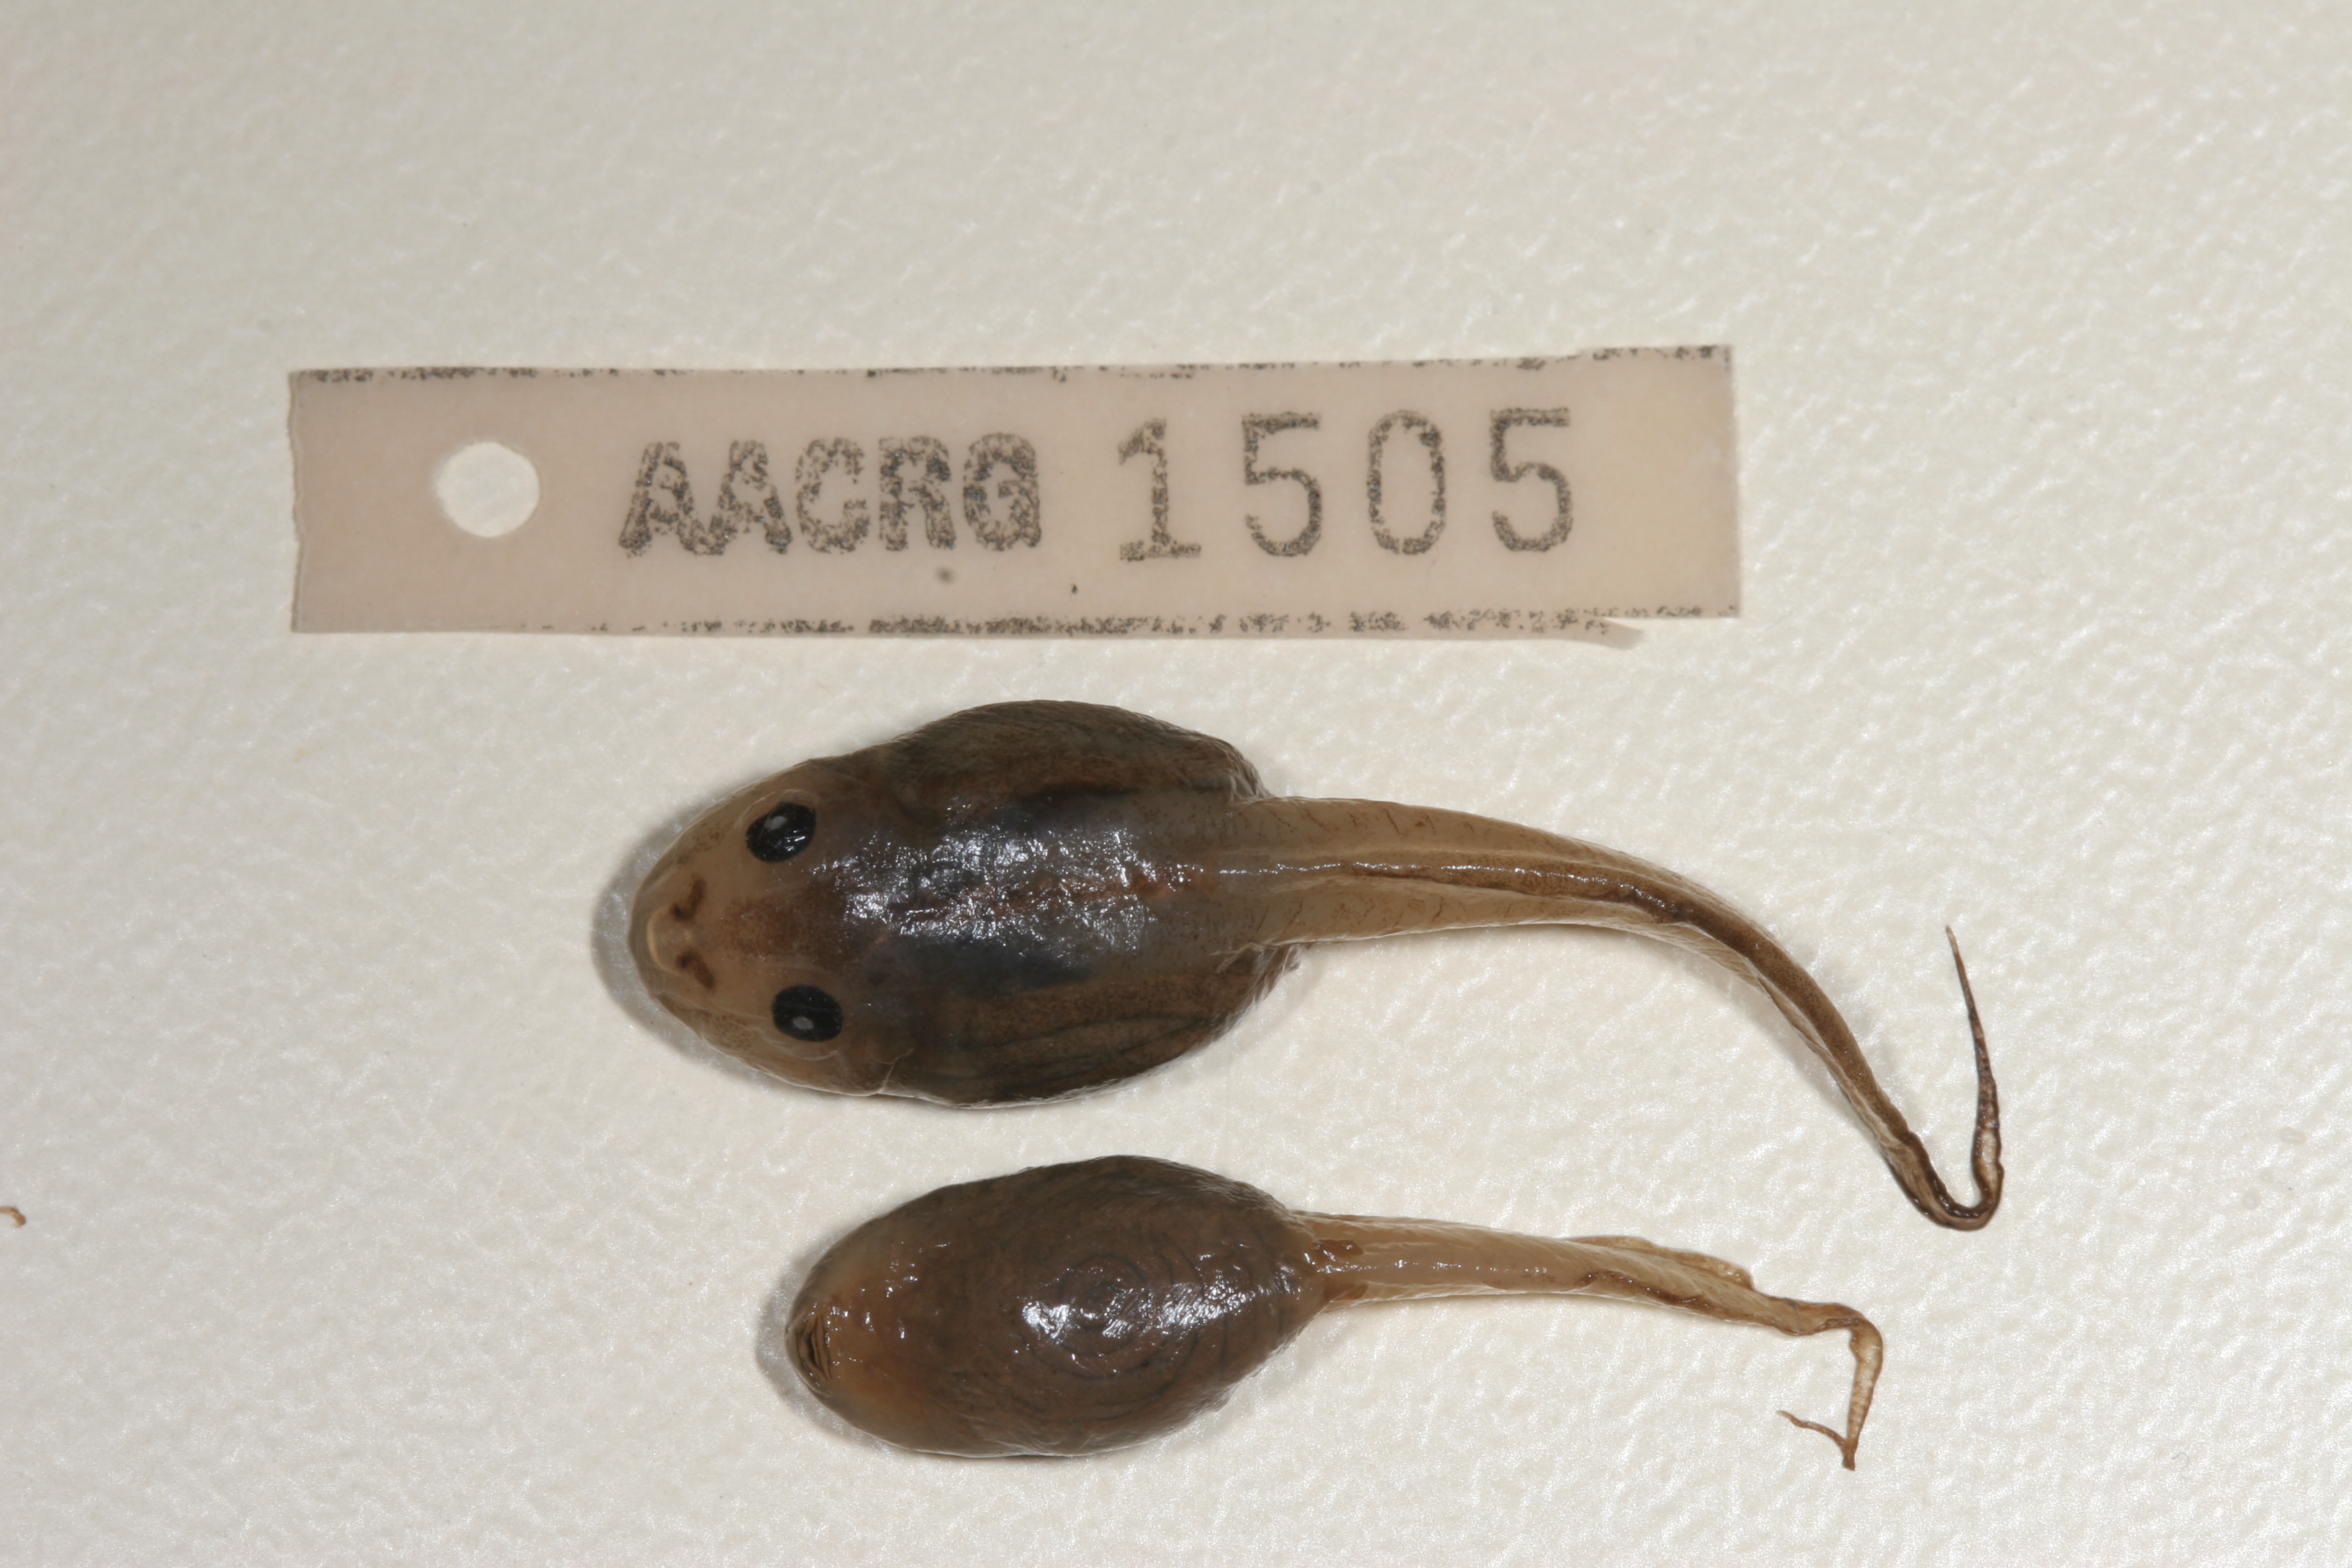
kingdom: Animalia
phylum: Chordata
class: Amphibia
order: Anura
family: Rhacophoridae
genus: Chiromantis
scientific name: Chiromantis xerampelina
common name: African gray treefrog
